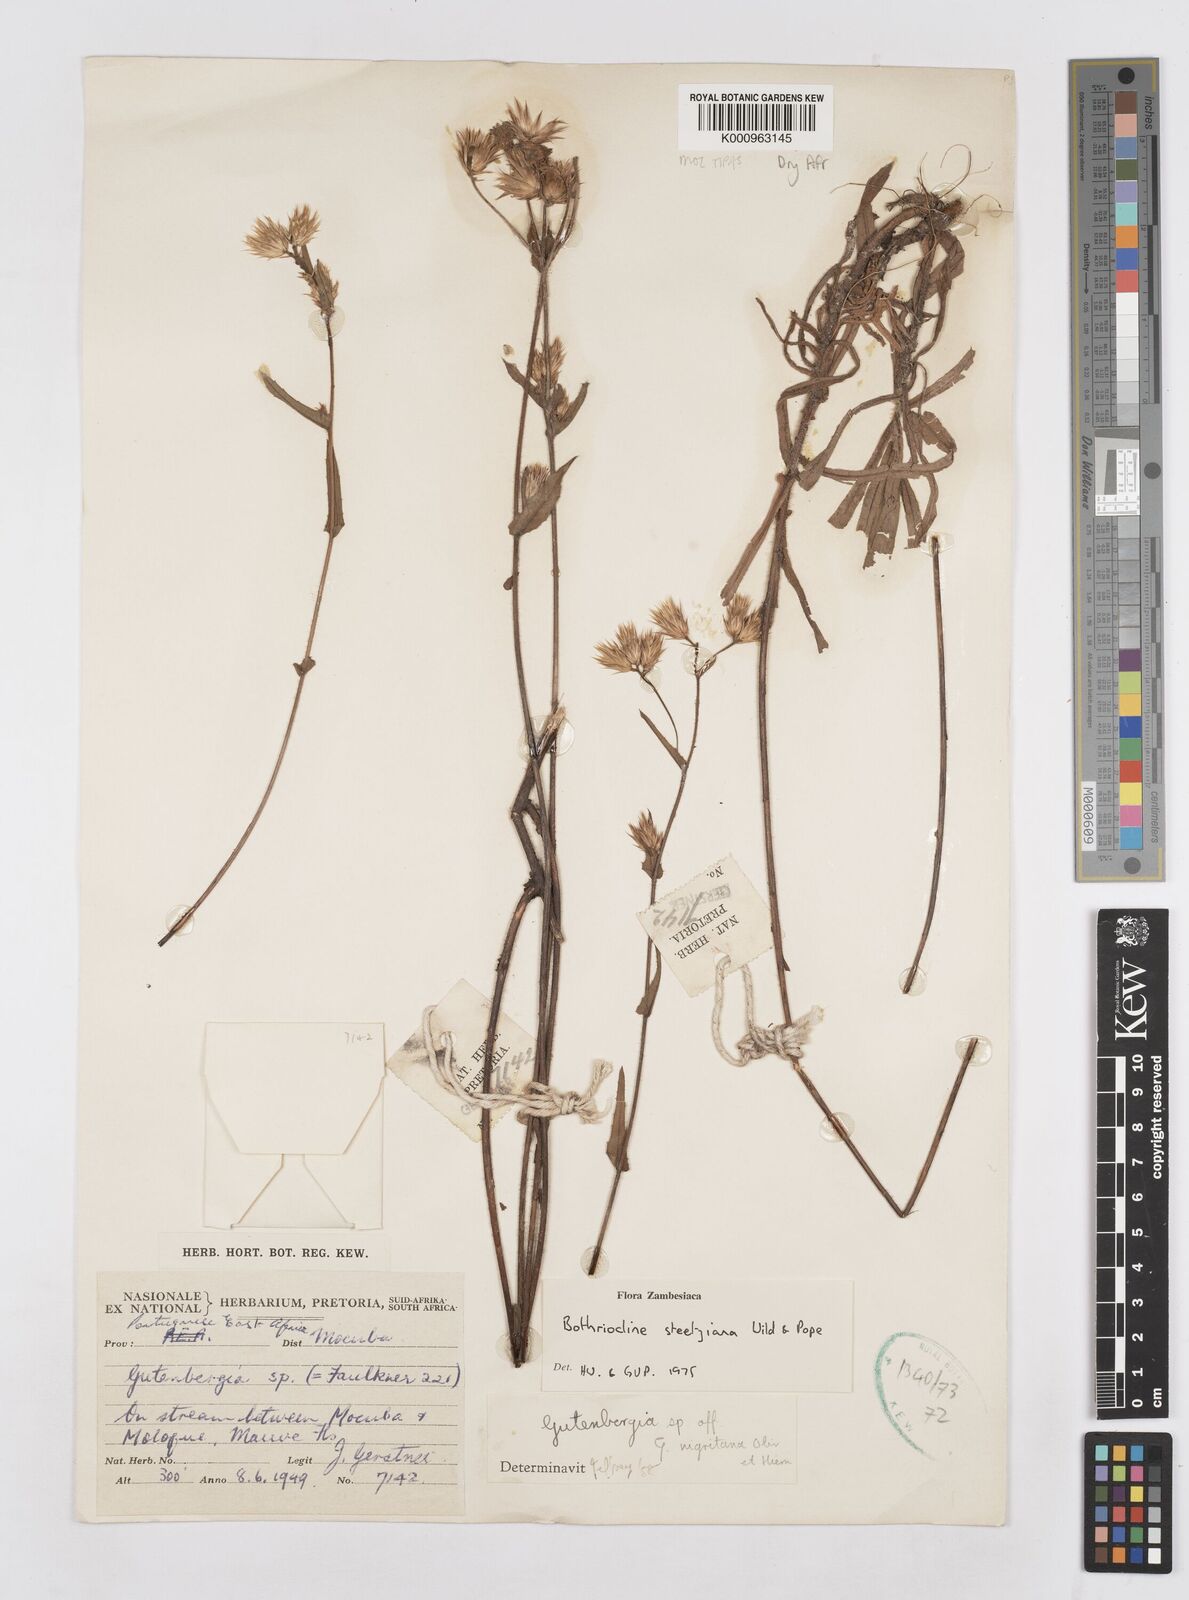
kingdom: Plantae
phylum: Tracheophyta
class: Magnoliopsida
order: Asterales
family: Asteraceae
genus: Bothriocline
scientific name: Bothriocline steetziana
